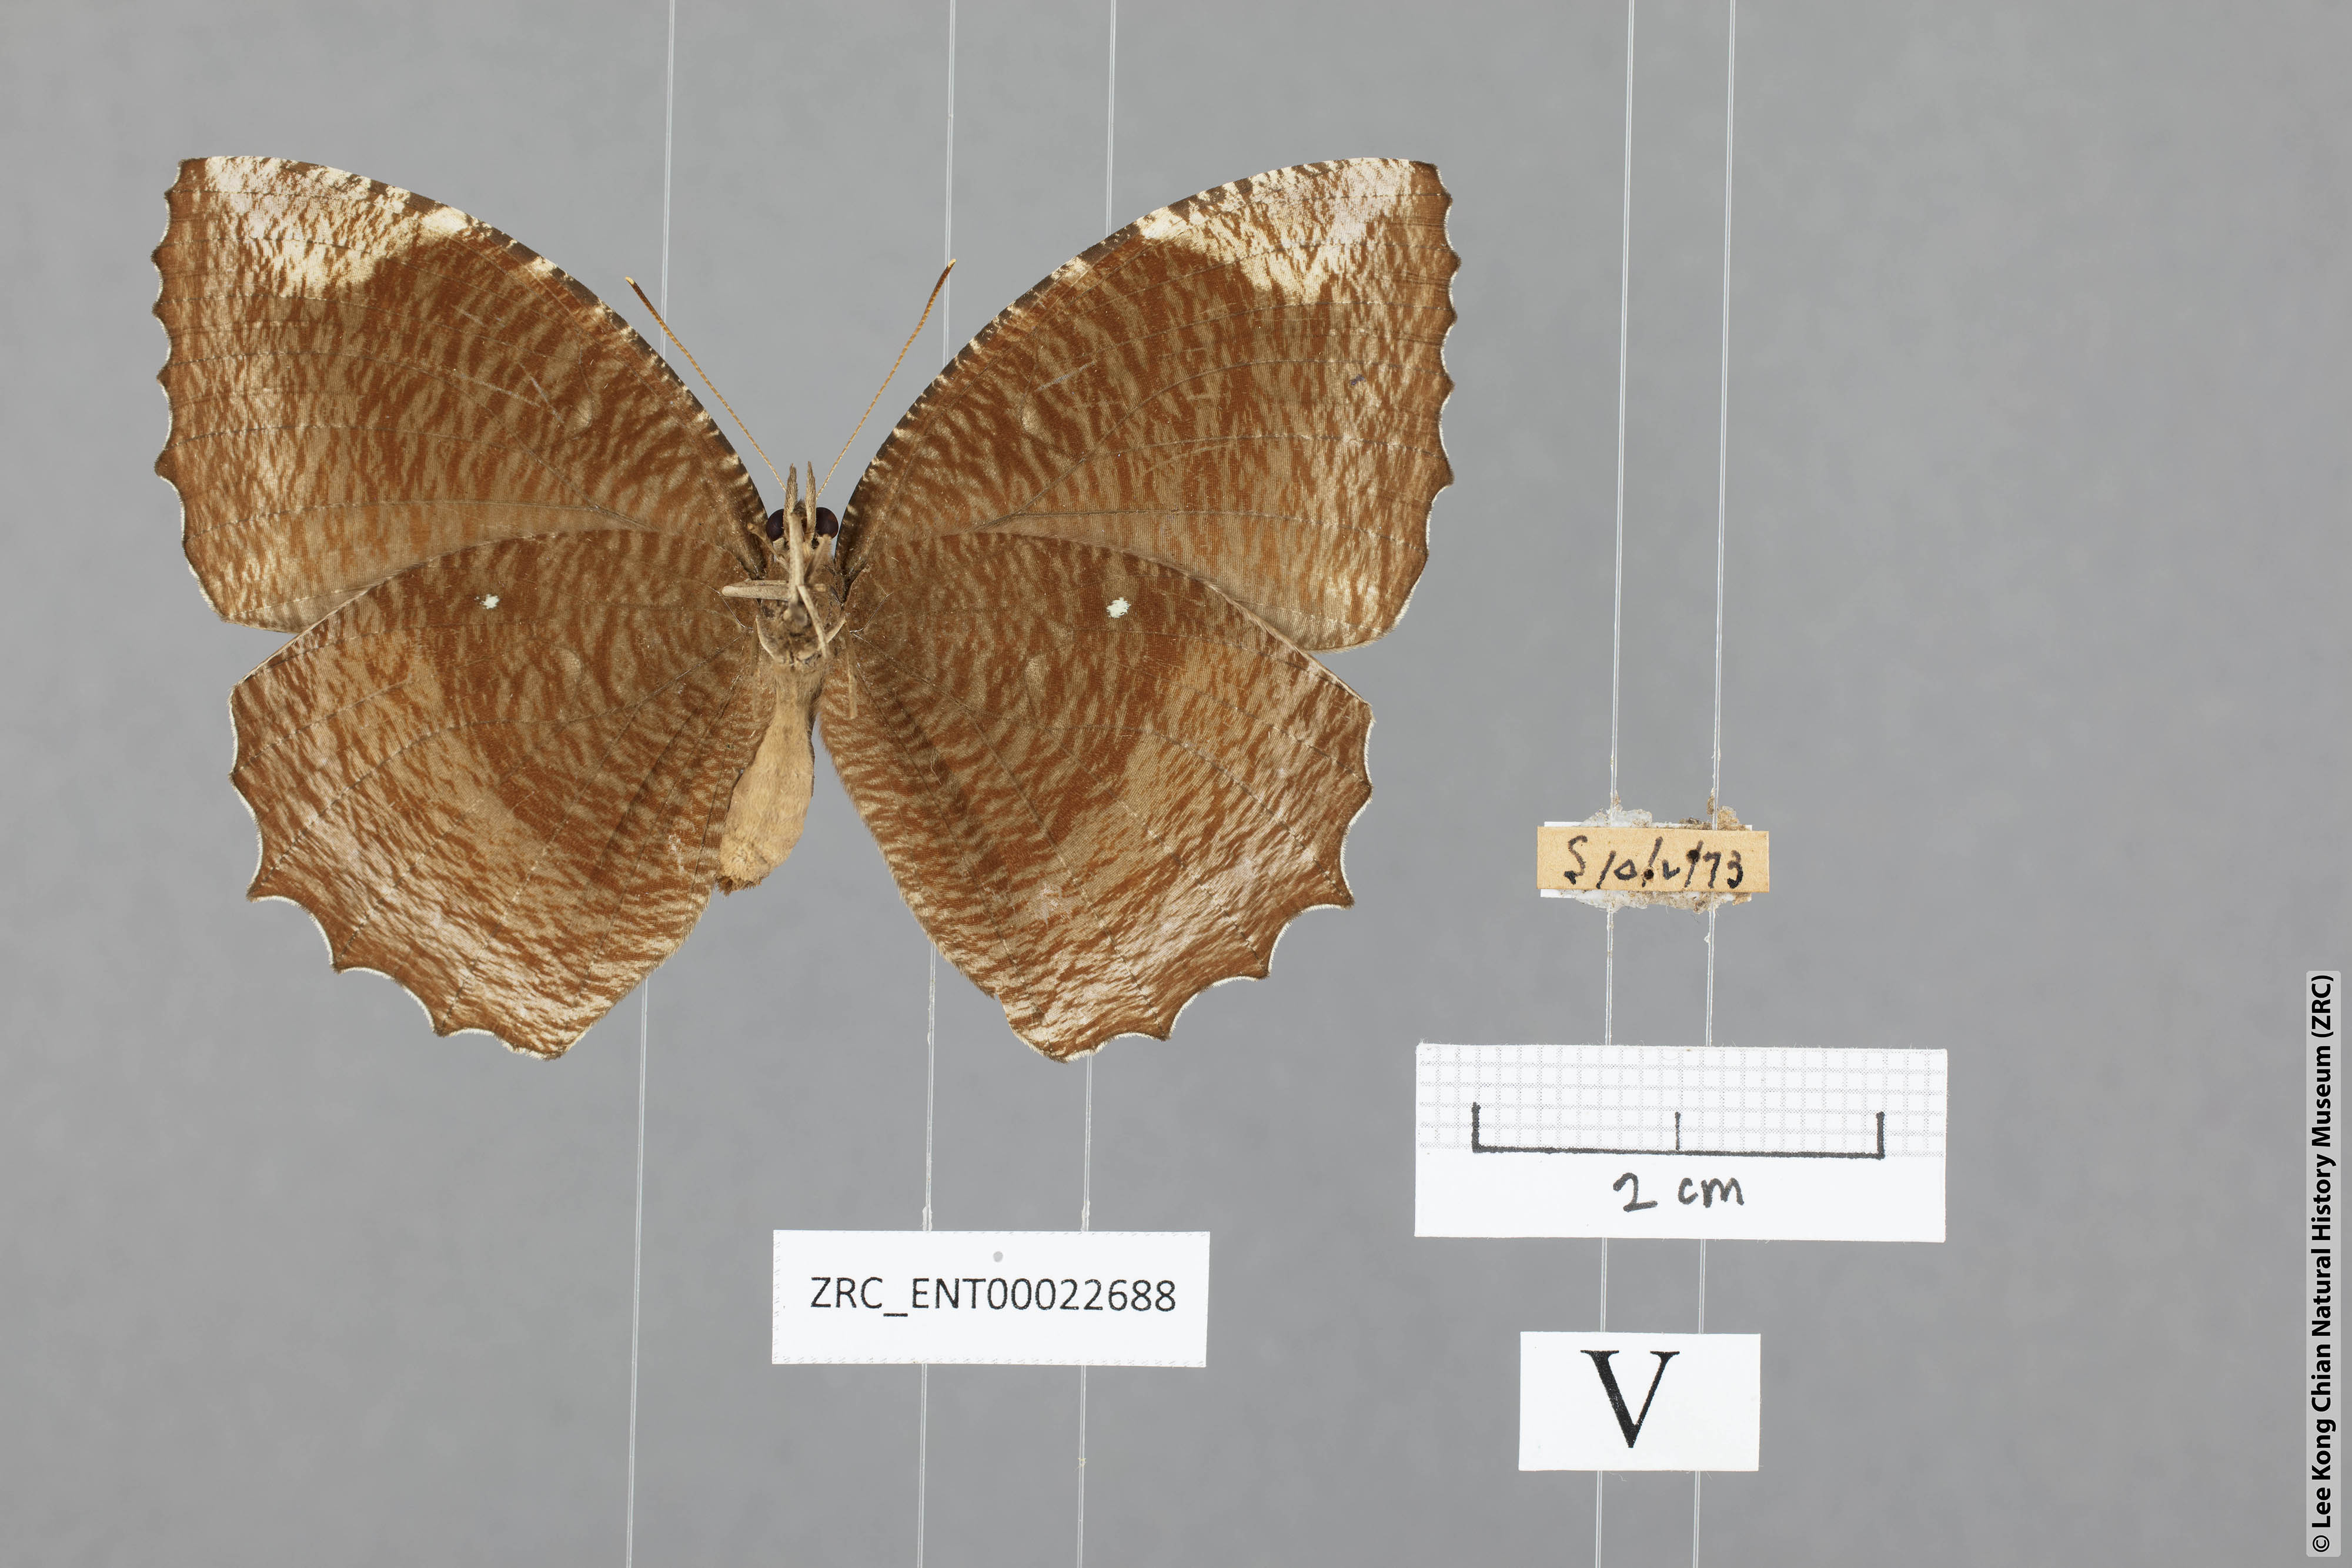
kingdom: Animalia
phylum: Arthropoda
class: Insecta
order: Lepidoptera
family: Nymphalidae
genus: Elymnias
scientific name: Elymnias hypermnestra
